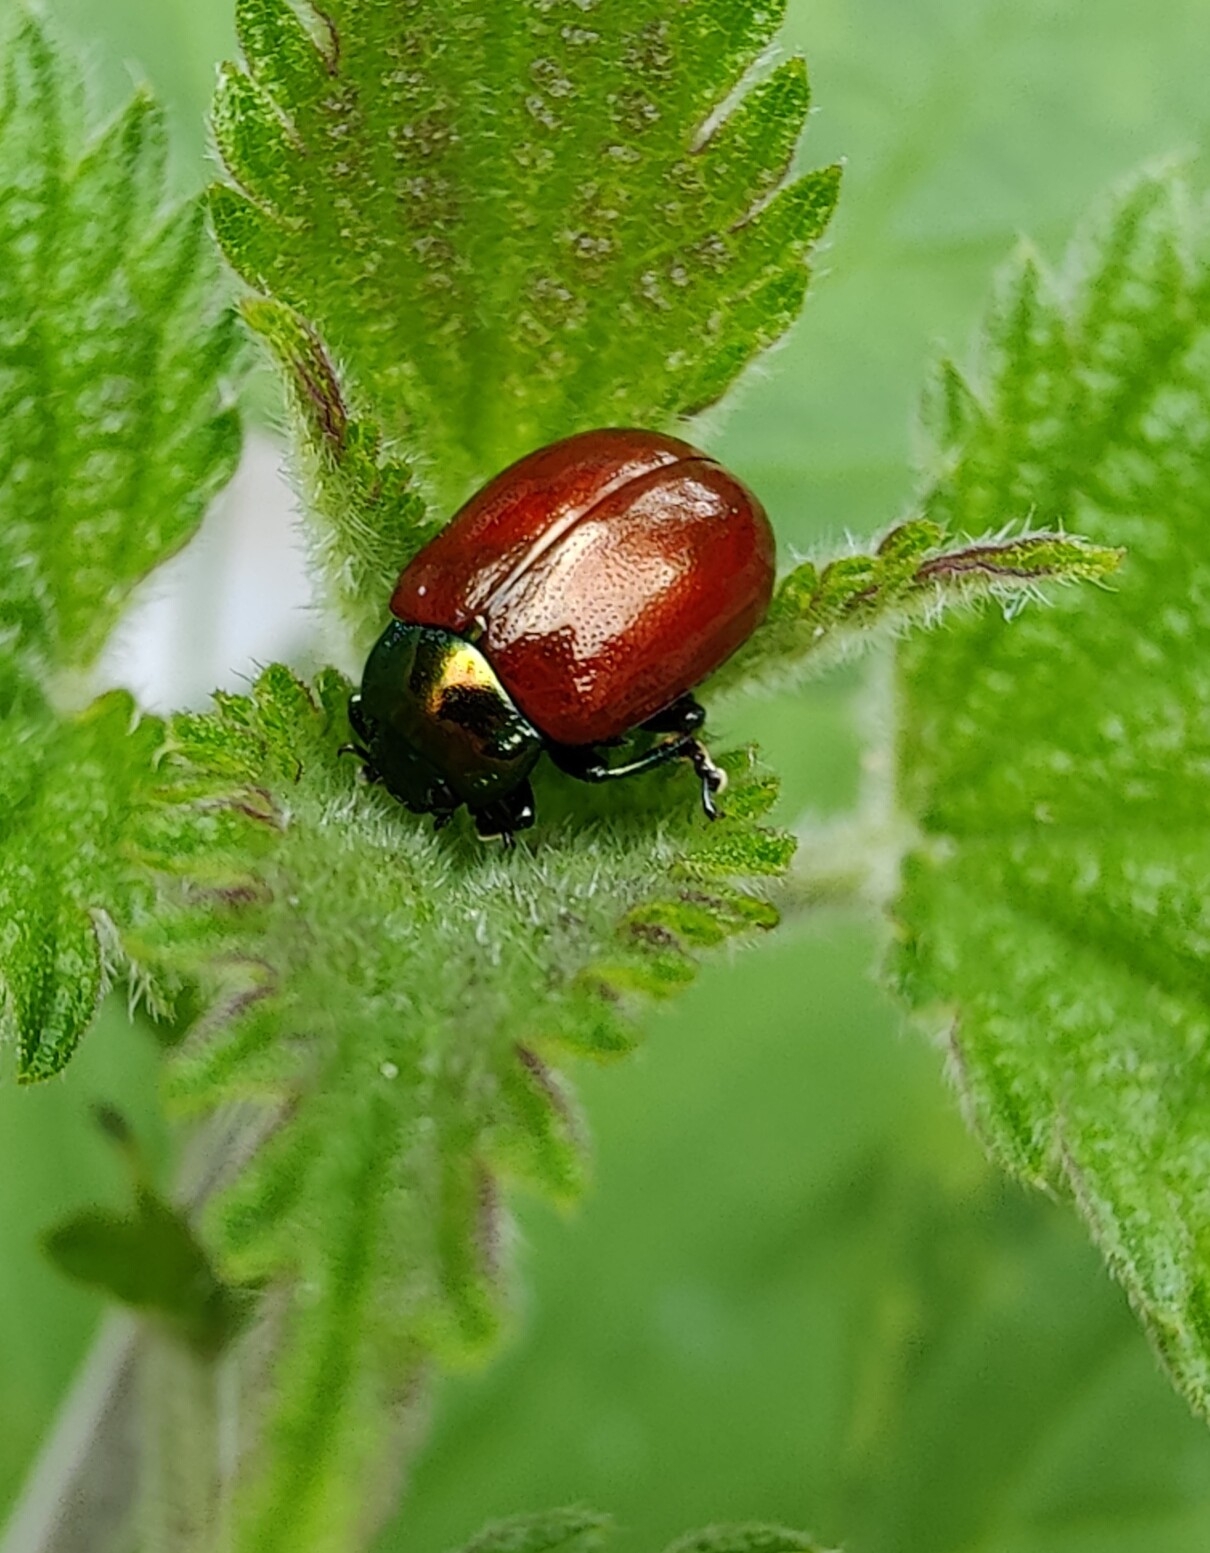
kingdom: Animalia
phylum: Arthropoda
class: Insecta
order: Coleoptera
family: Chrysomelidae
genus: Chrysomela
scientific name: Chrysomela polita
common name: Forskelligfarvet guldbille
